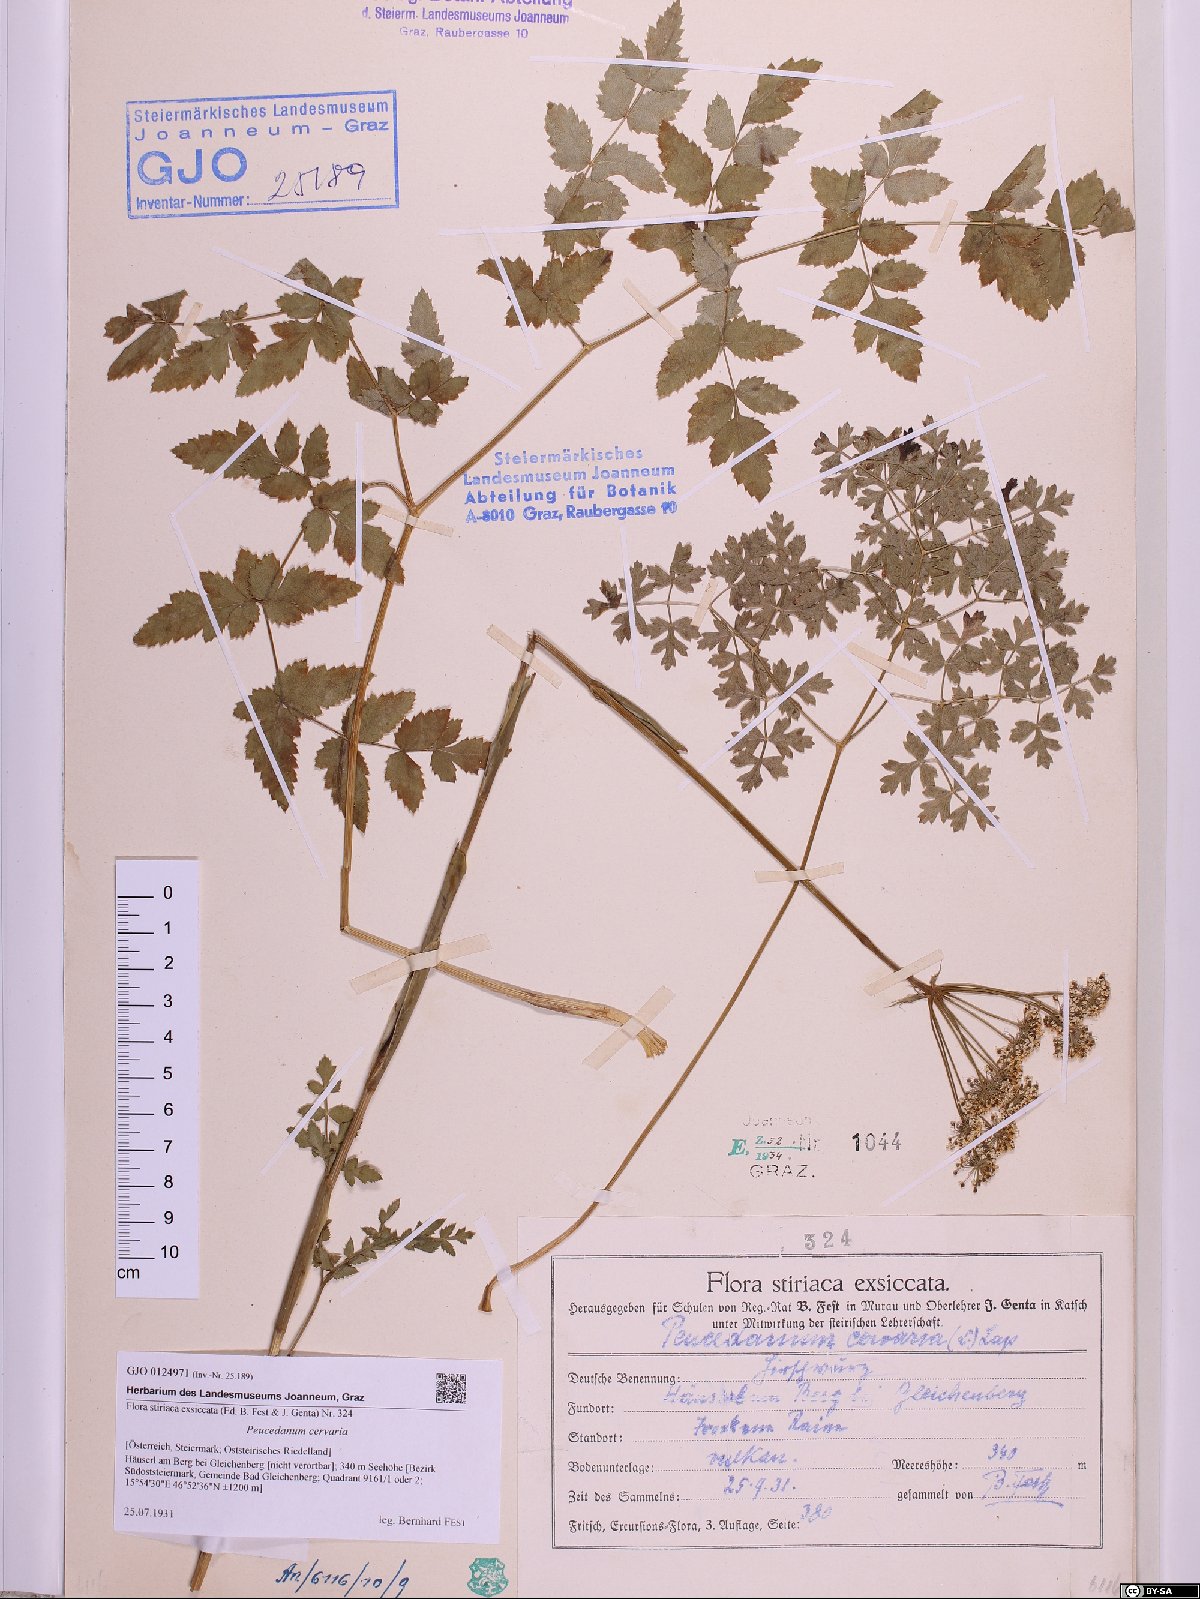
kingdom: Plantae
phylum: Tracheophyta
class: Magnoliopsida
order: Apiales
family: Apiaceae
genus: Cervaria
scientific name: Cervaria rivini
